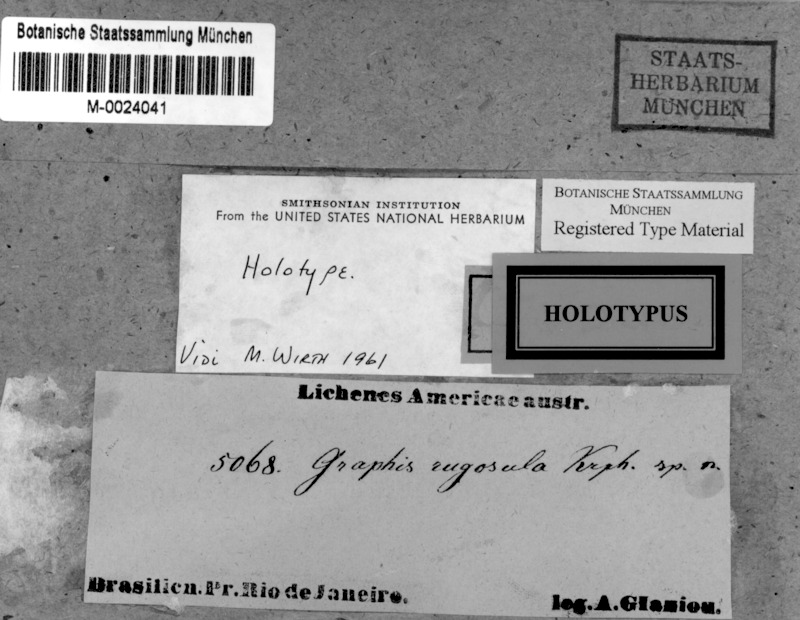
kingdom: Fungi
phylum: Ascomycota
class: Lecanoromycetes
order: Ostropales
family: Graphidaceae
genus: Graphis
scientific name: Graphis
